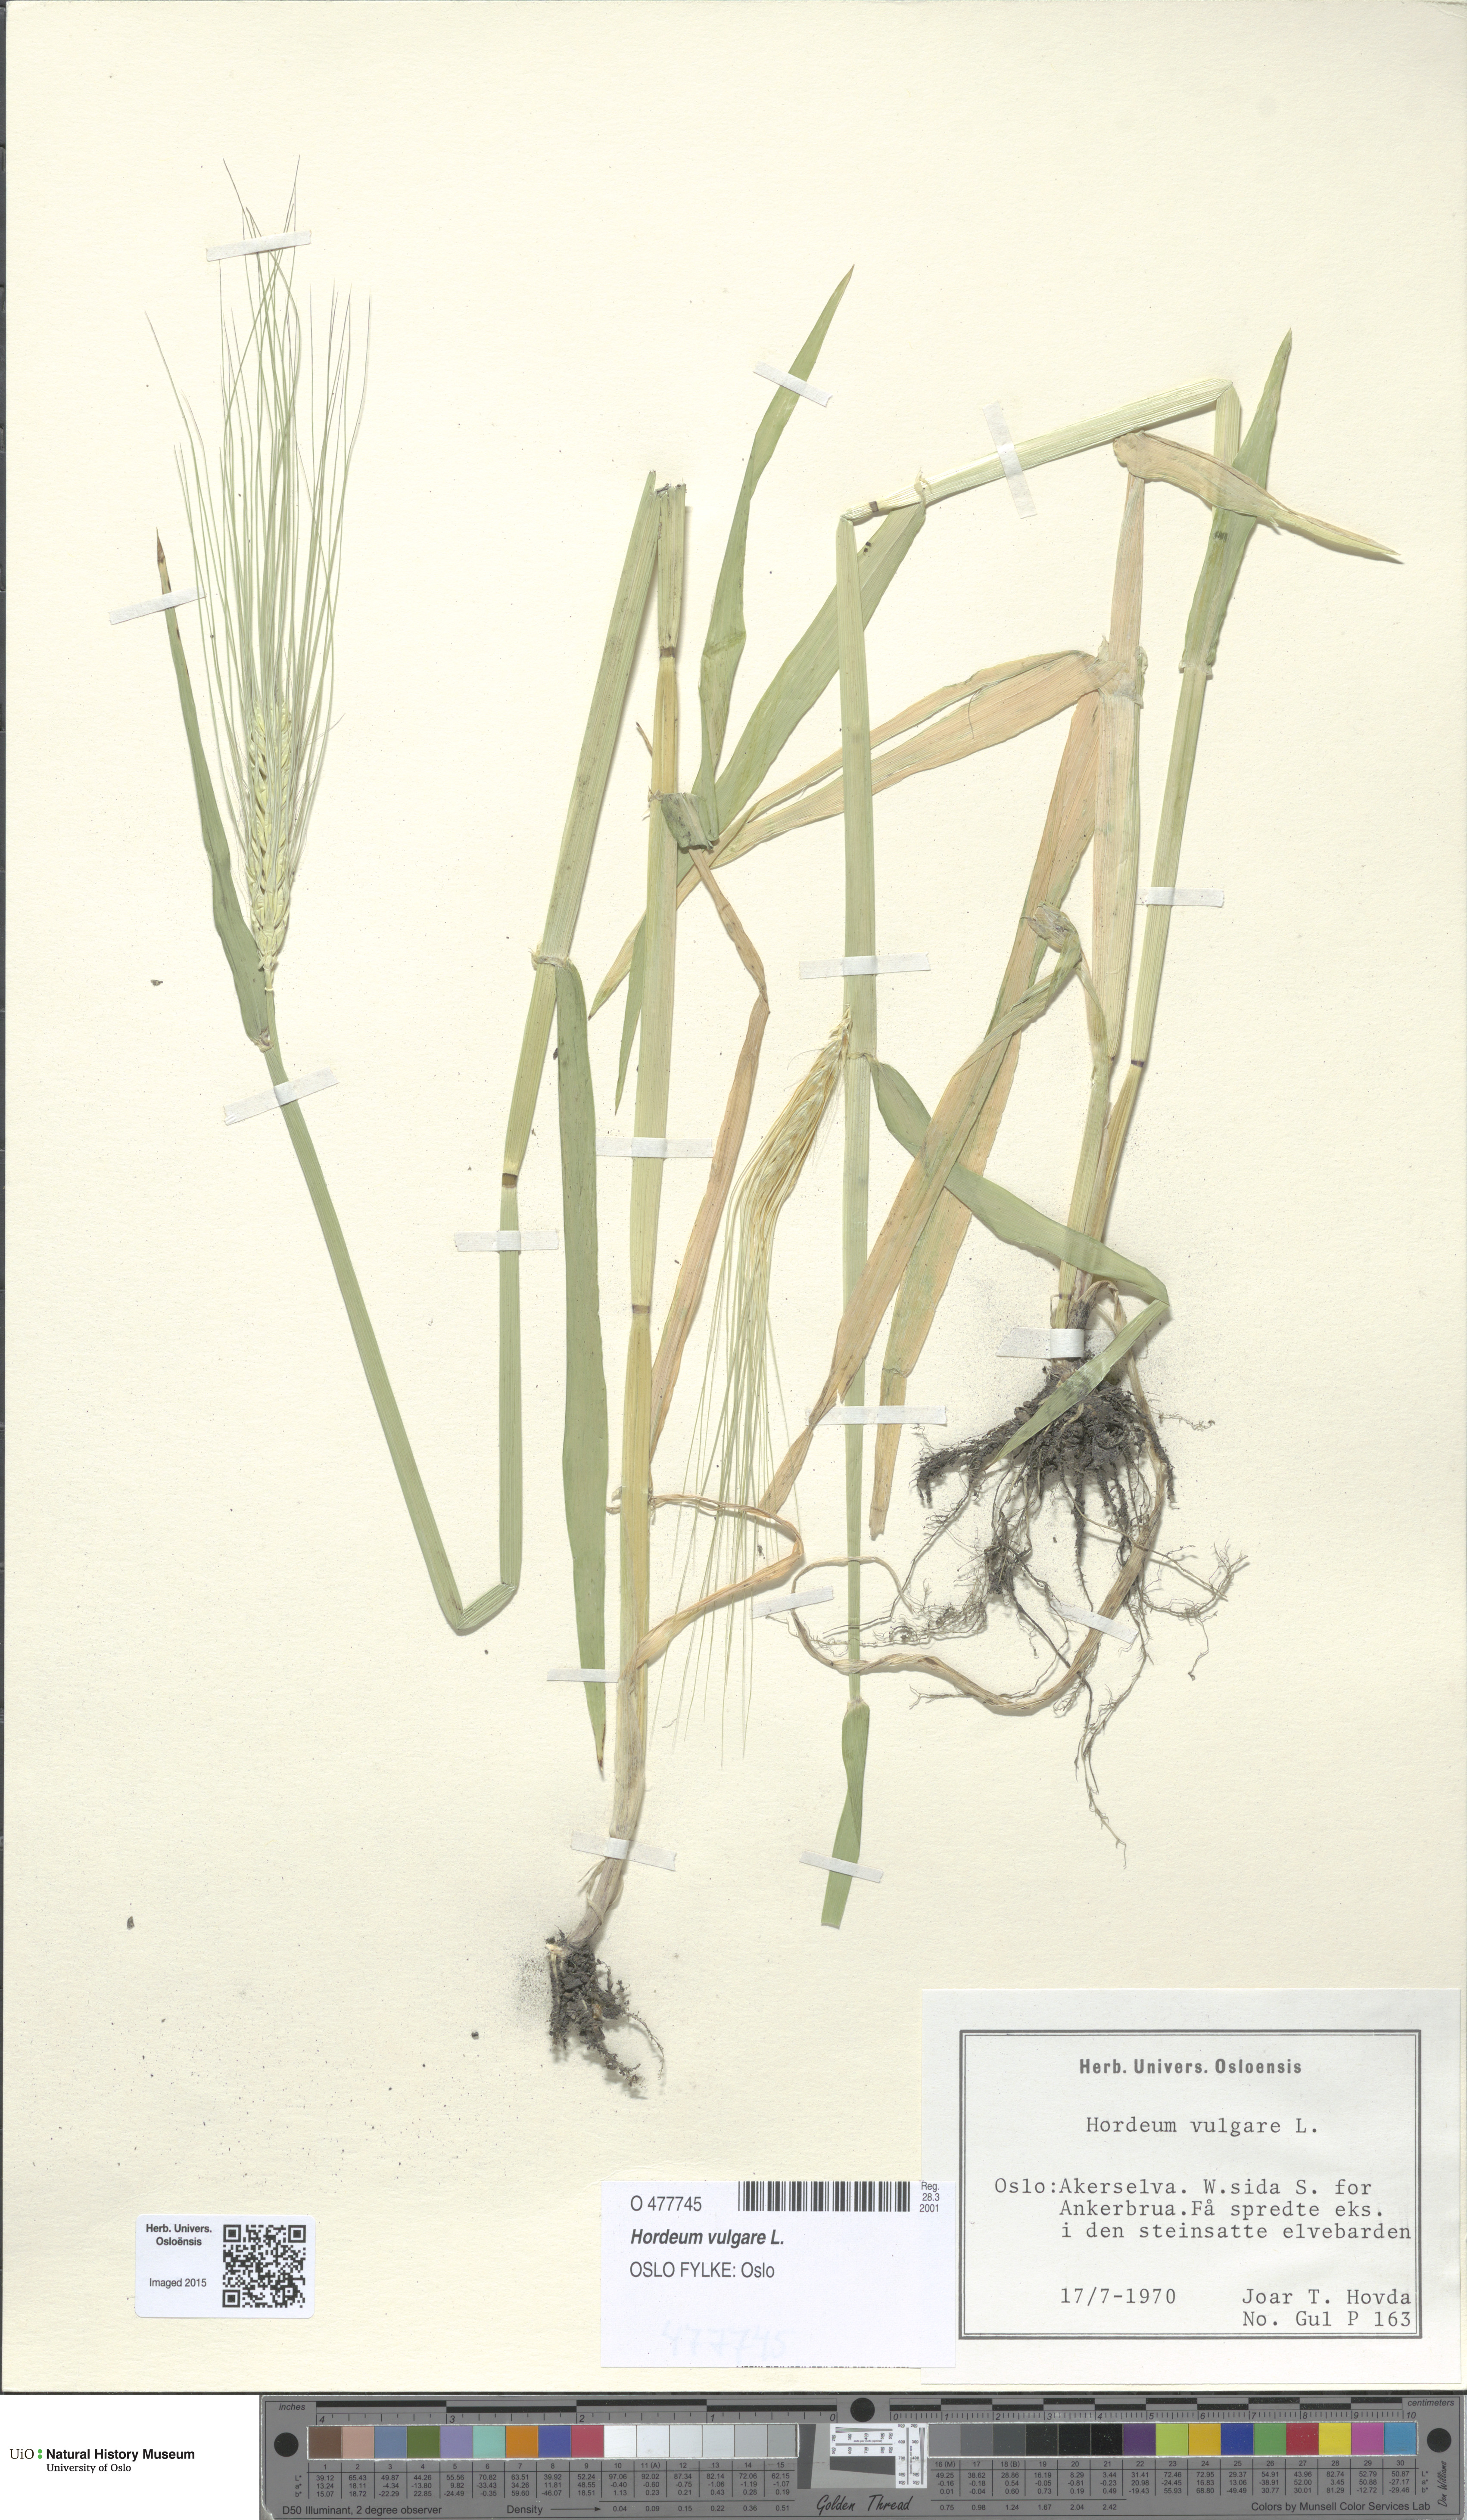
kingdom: Plantae
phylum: Tracheophyta
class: Liliopsida
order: Poales
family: Poaceae
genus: Hordeum
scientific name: Hordeum vulgare
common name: Common barley
